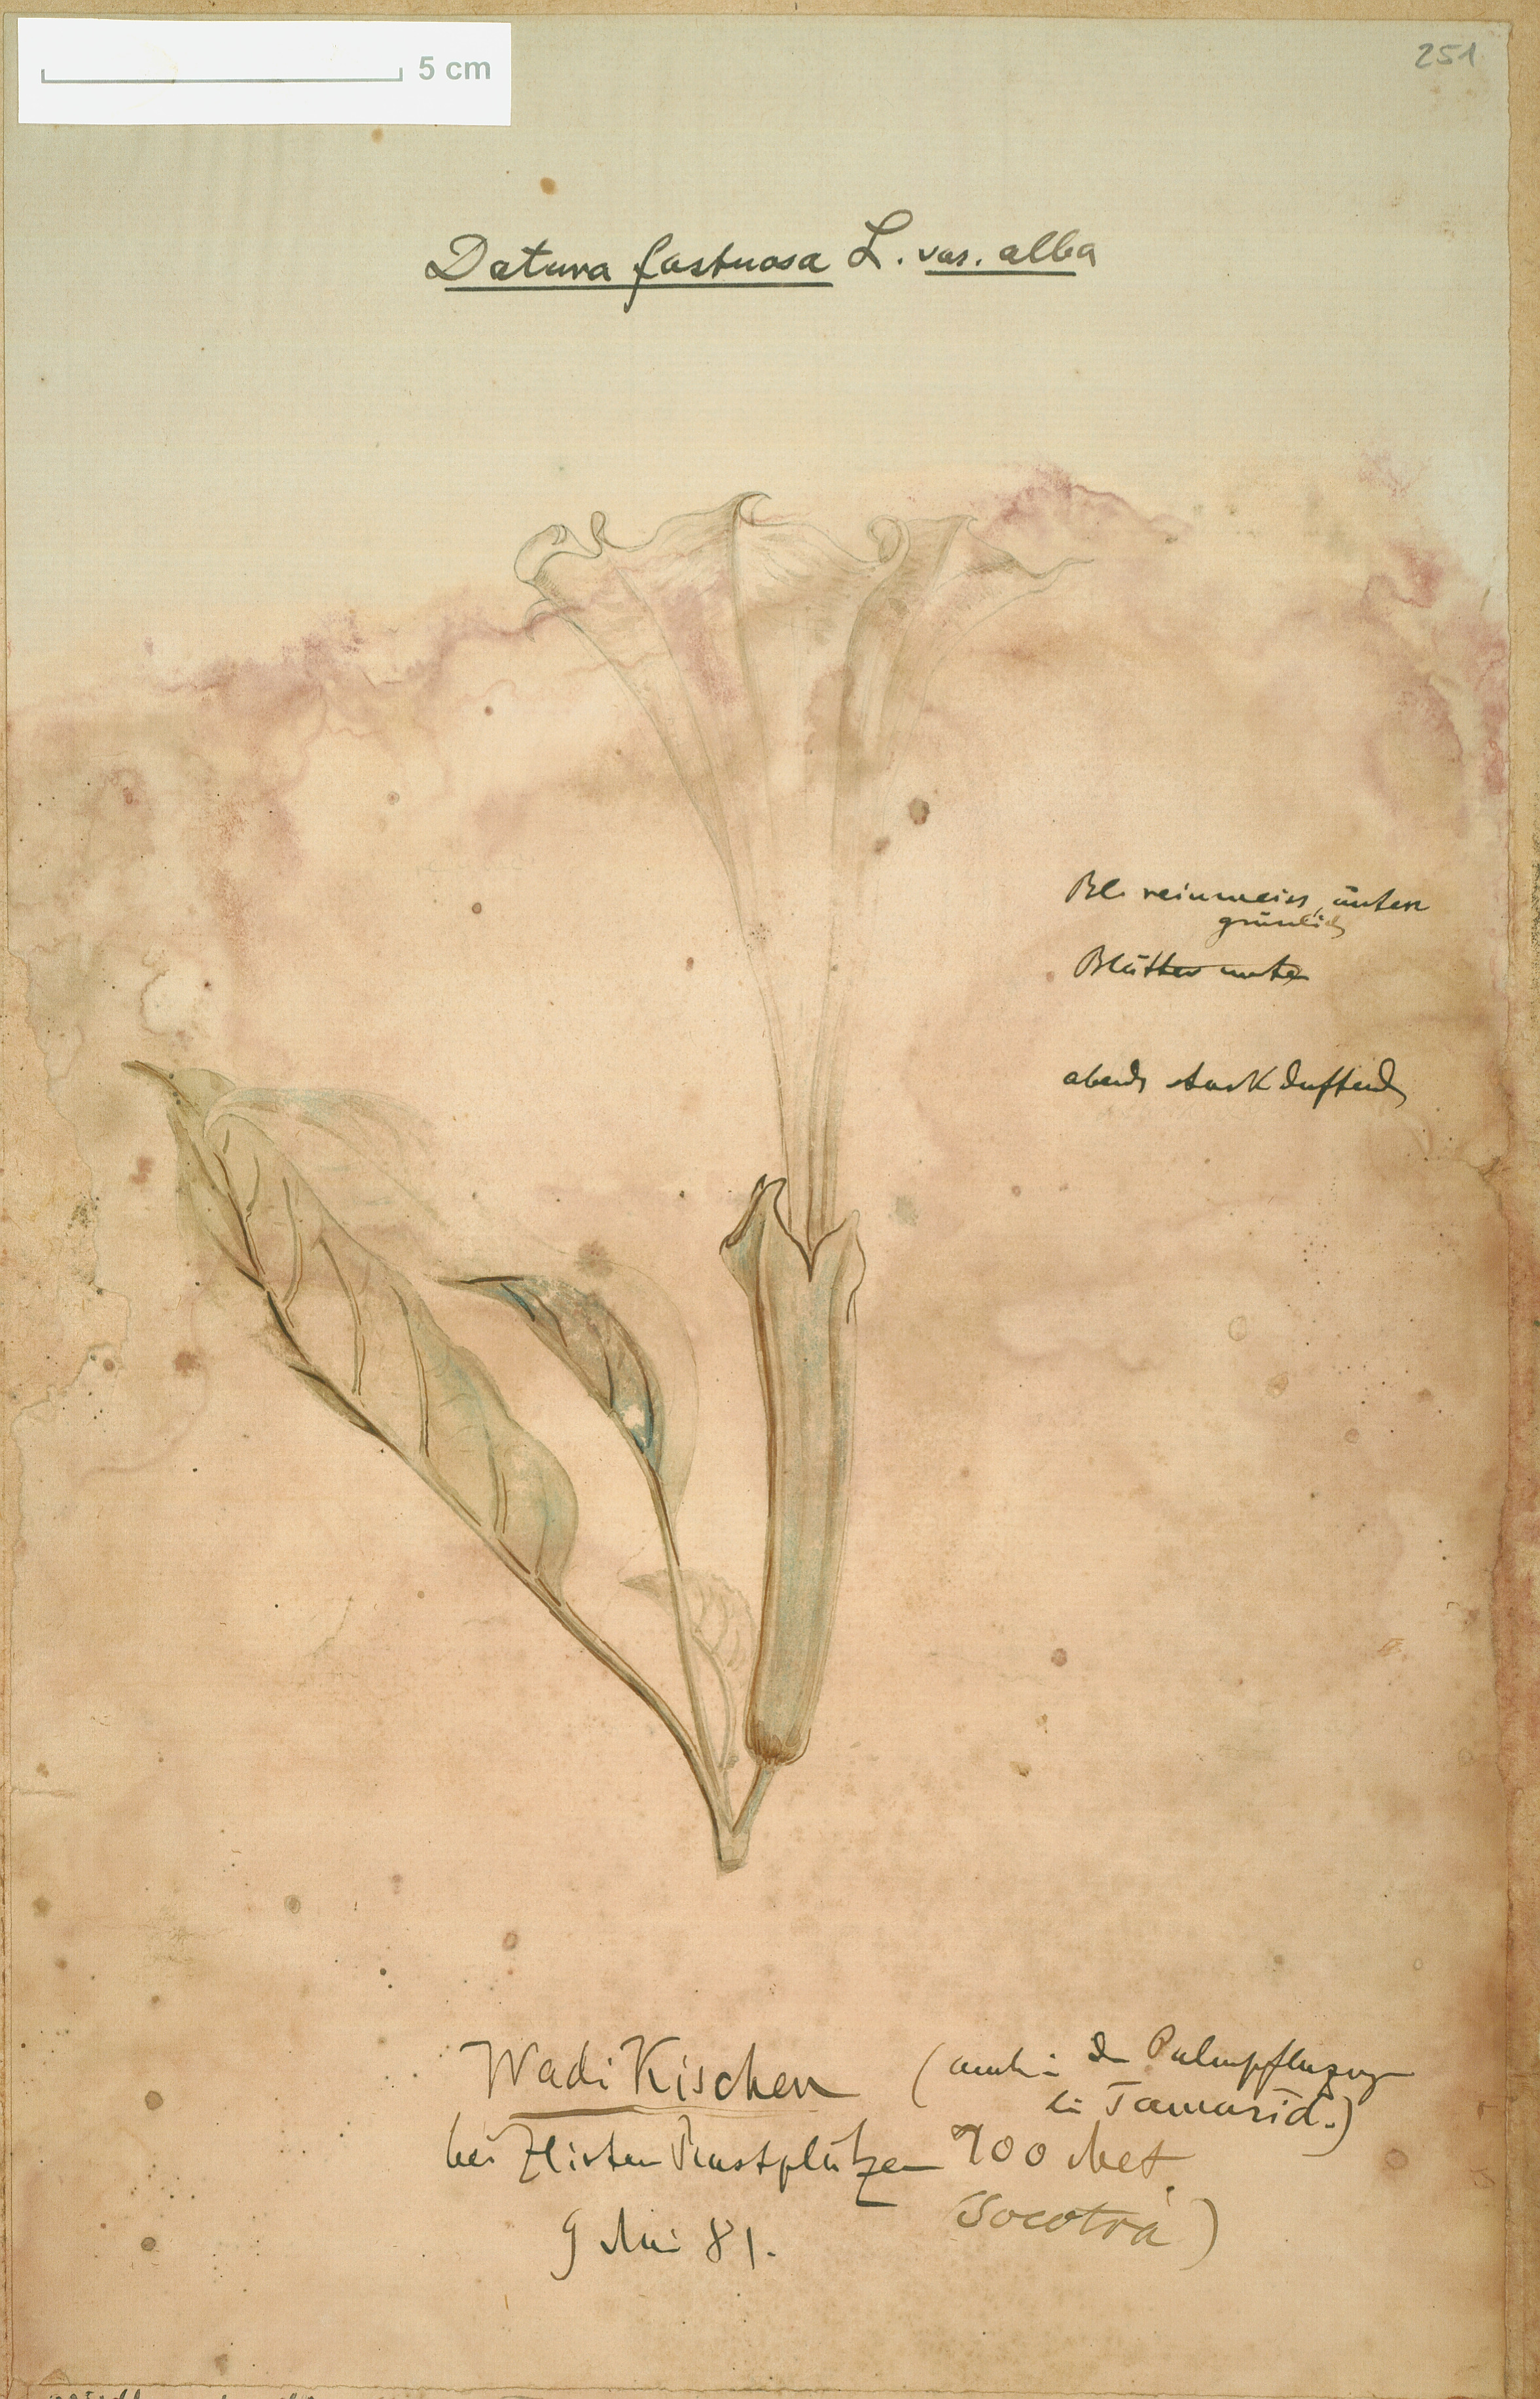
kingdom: Plantae
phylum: Tracheophyta
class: Magnoliopsida
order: Solanales
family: Solanaceae
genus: Datura
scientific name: Datura metel
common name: Jimsonweed
